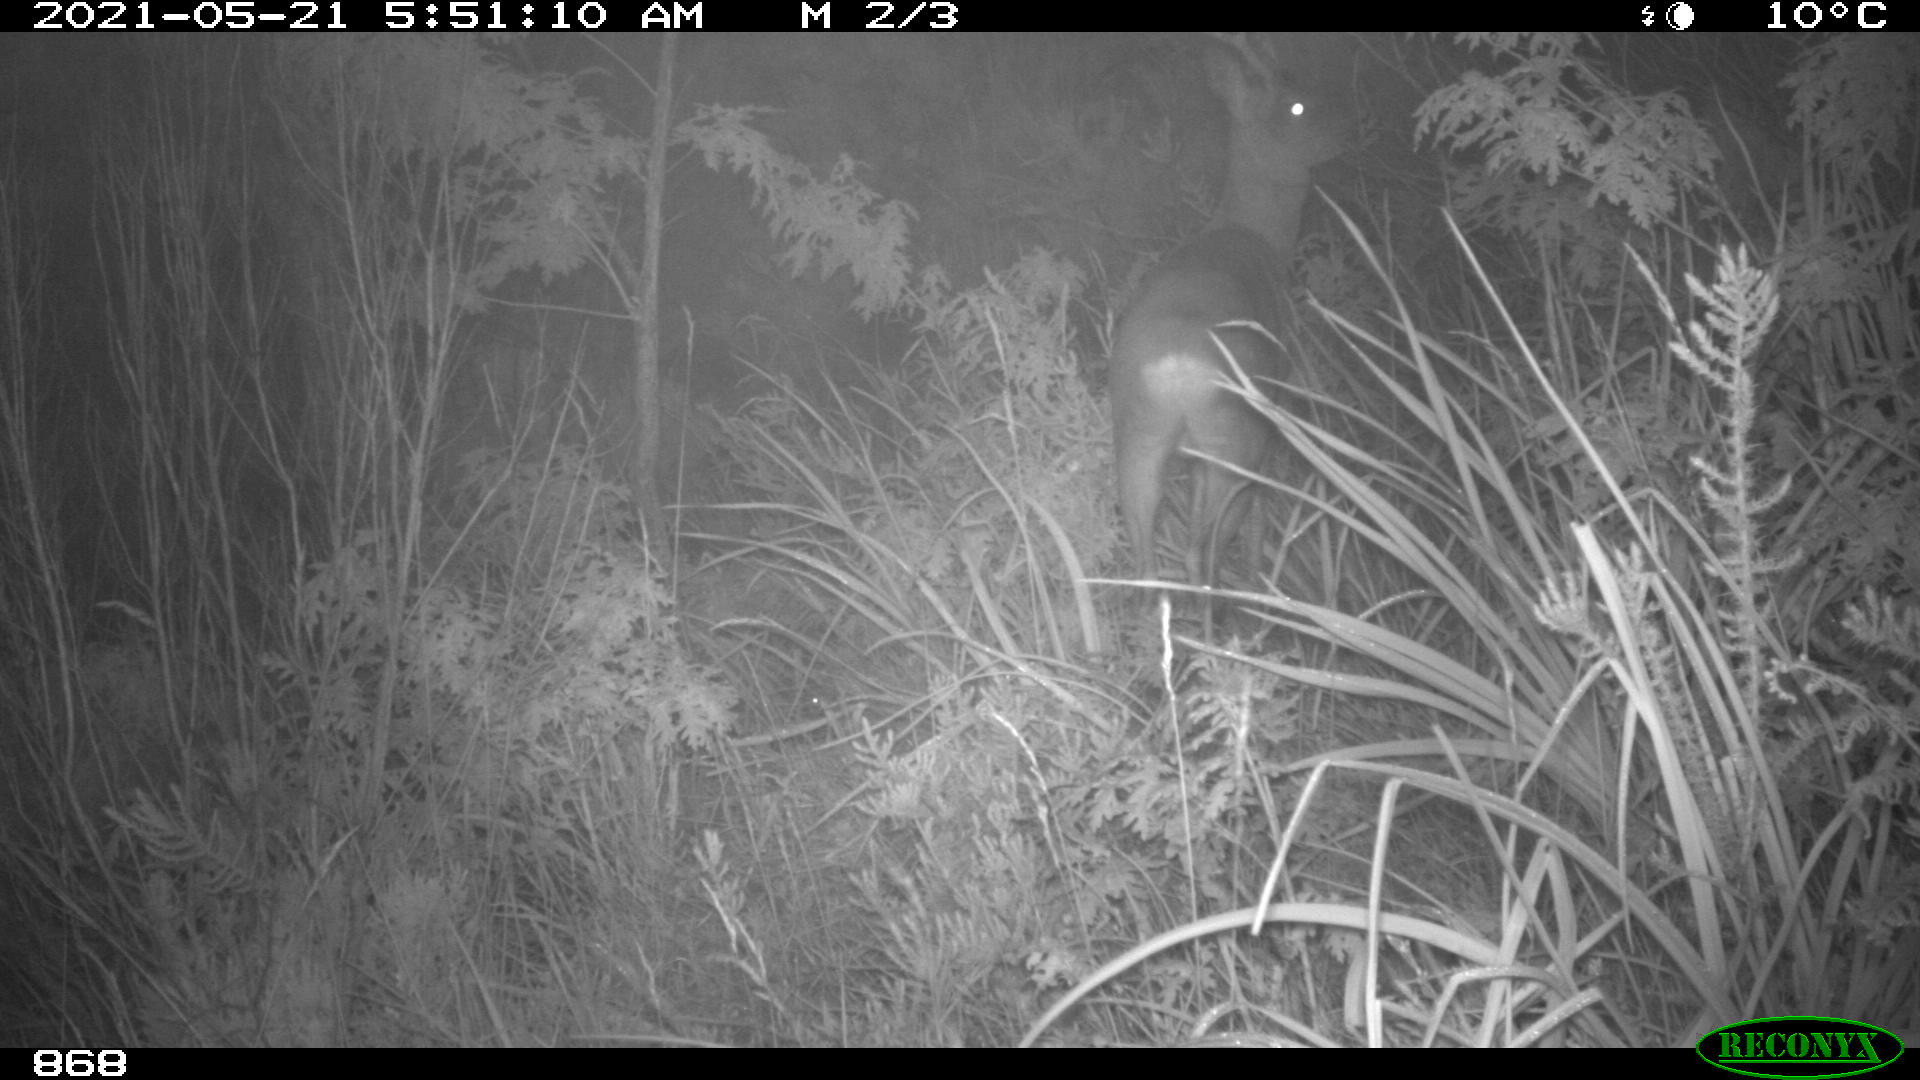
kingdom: Animalia
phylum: Chordata
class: Mammalia
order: Artiodactyla
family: Cervidae
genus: Capreolus
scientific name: Capreolus capreolus
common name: Western roe deer
